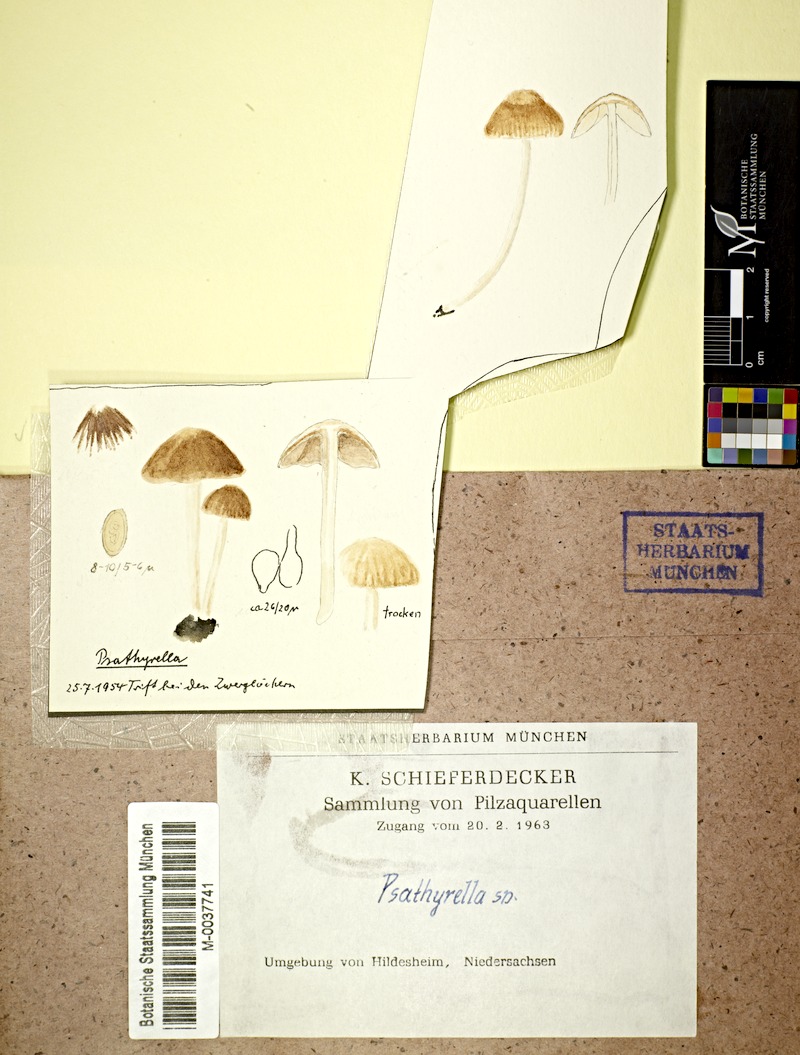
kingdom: Fungi
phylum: Basidiomycota
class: Agaricomycetes
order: Agaricales
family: Psathyrellaceae
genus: Psathyrella
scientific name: Psathyrella
